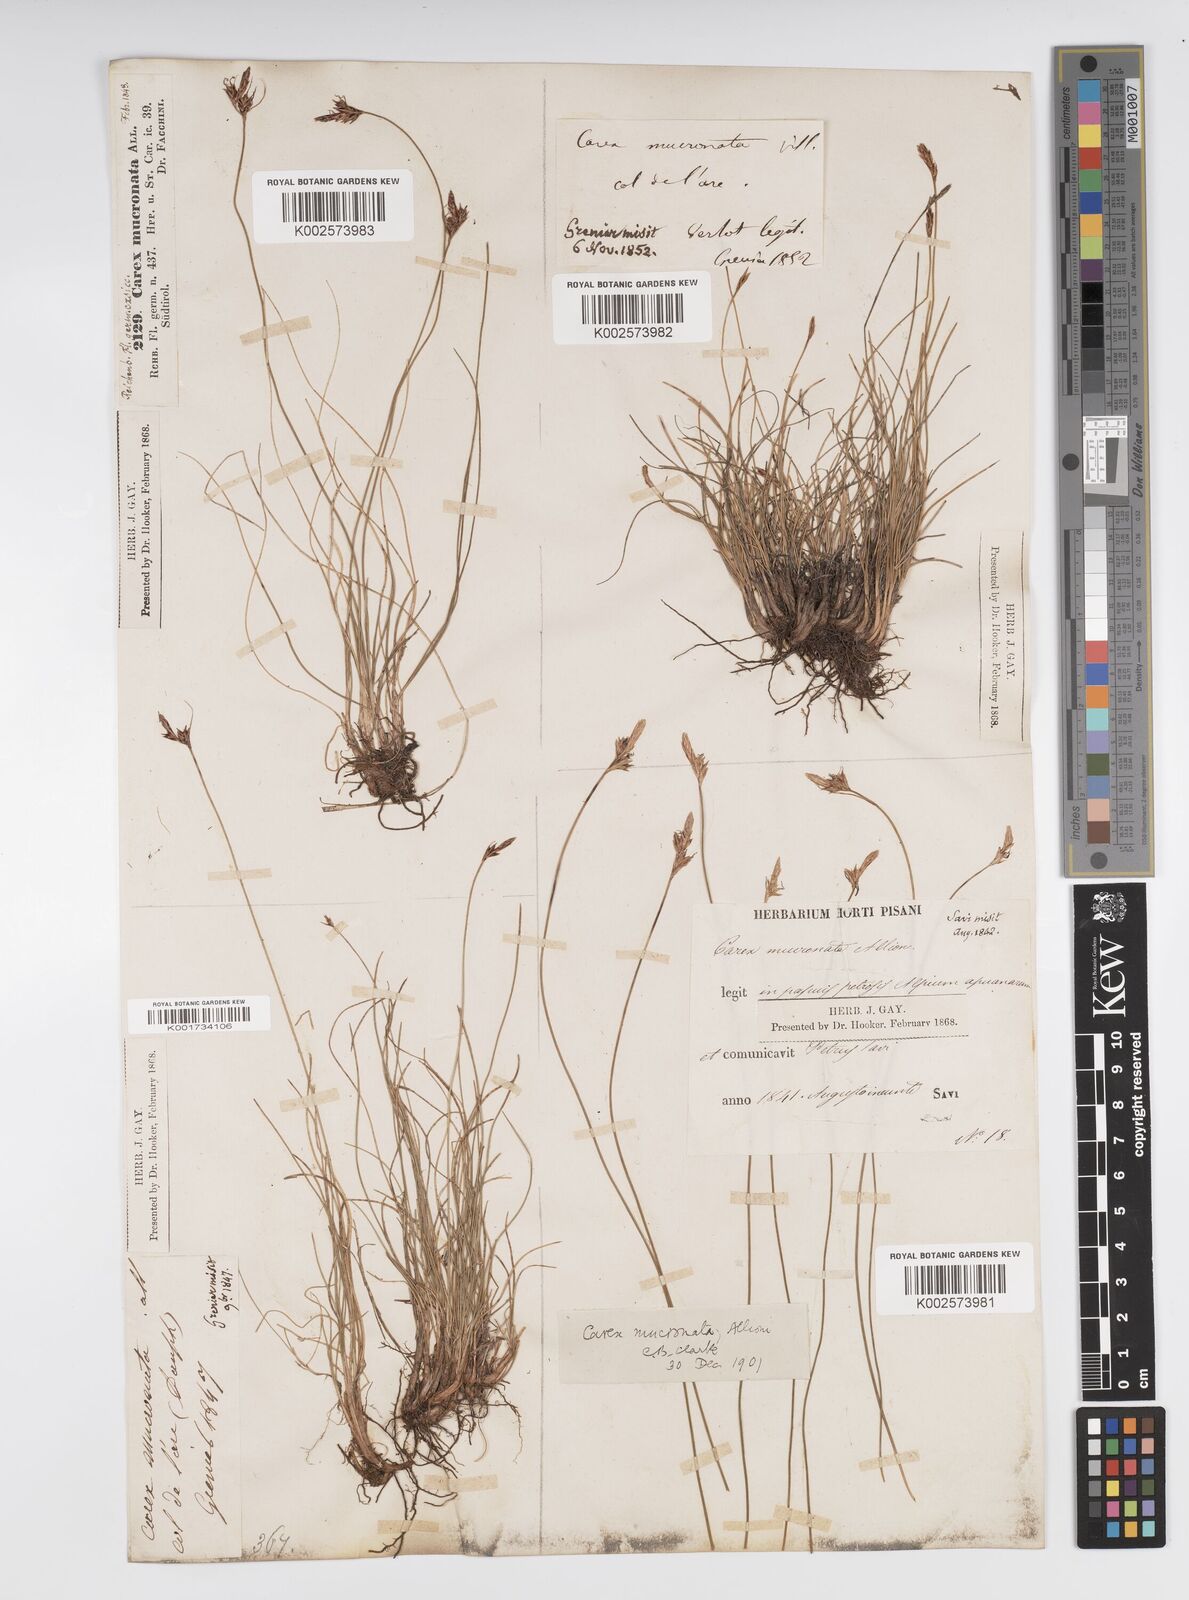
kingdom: Plantae
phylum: Tracheophyta
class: Liliopsida
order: Poales
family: Cyperaceae
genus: Carex
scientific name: Carex mucronata
